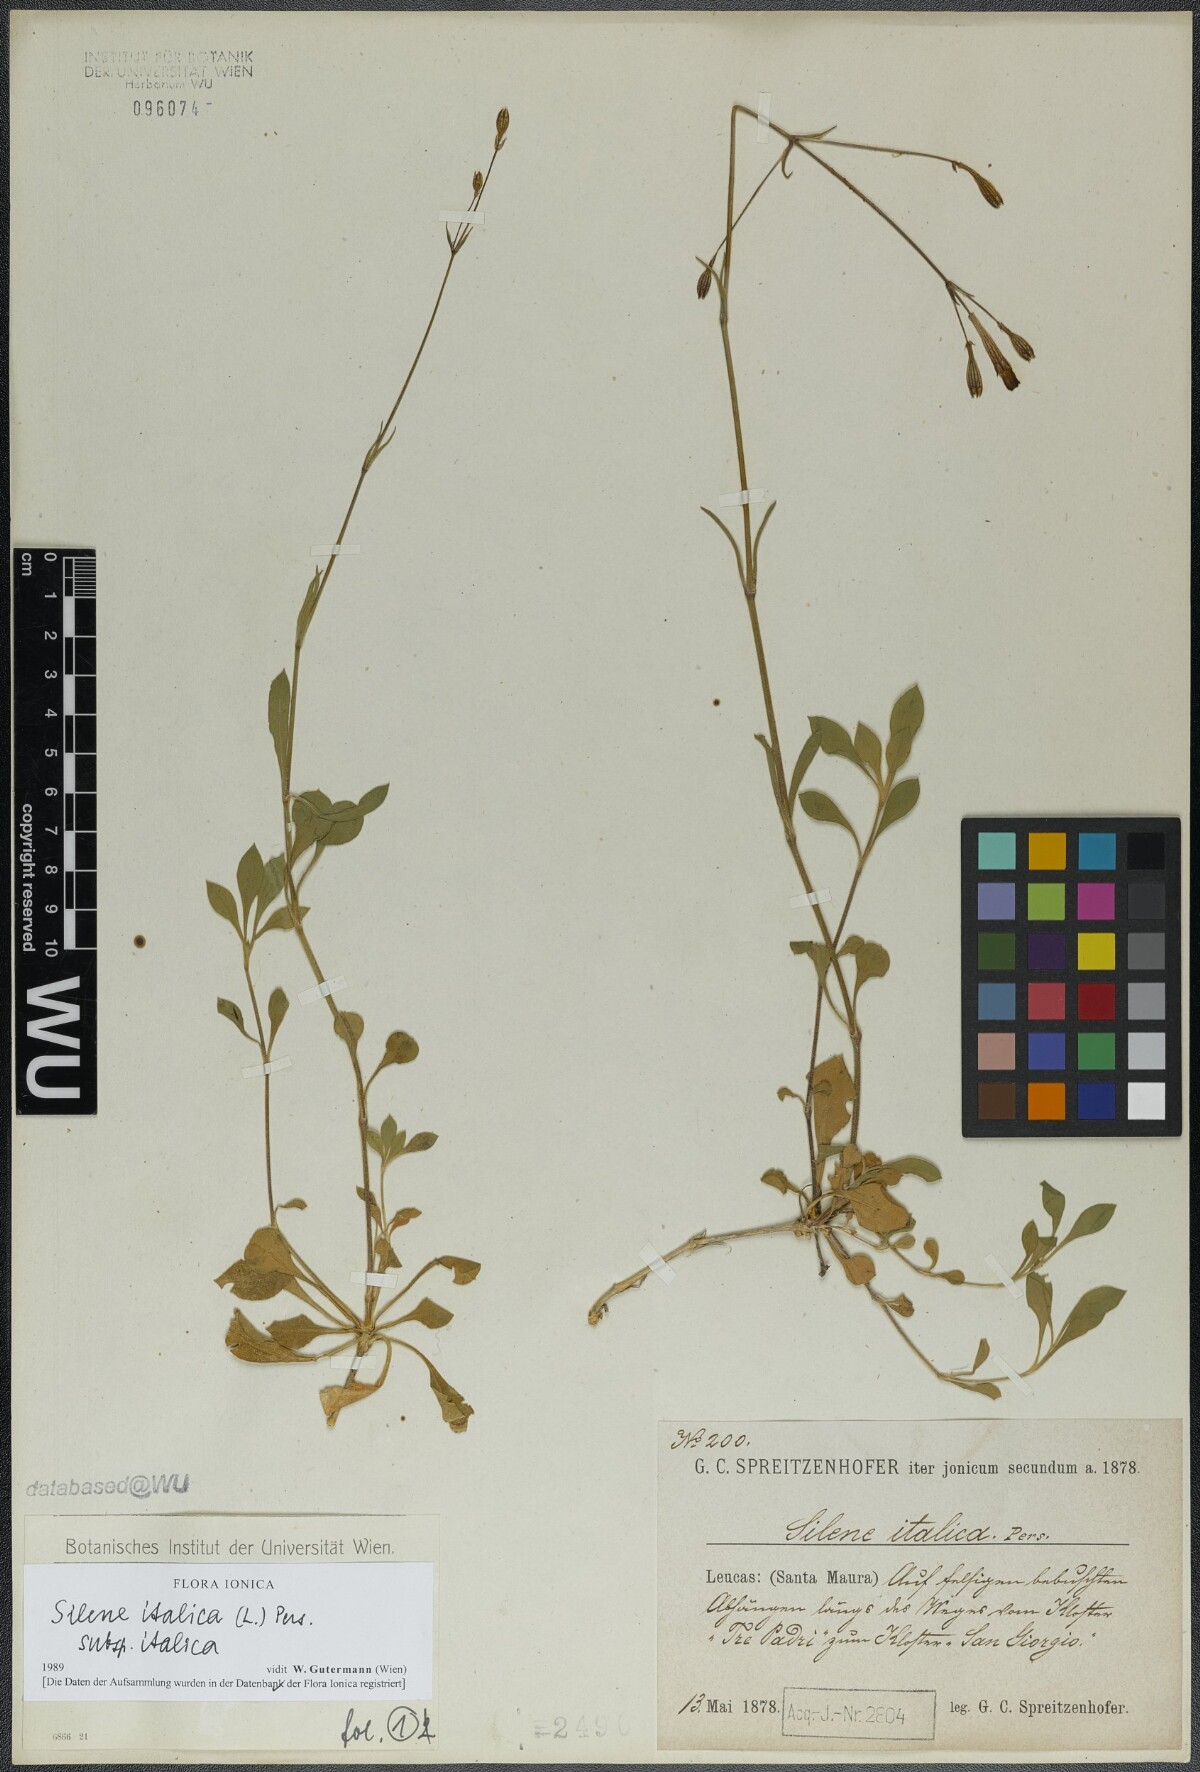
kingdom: Plantae
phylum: Tracheophyta
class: Magnoliopsida
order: Caryophyllales
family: Caryophyllaceae
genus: Silene
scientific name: Silene italica
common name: Italian catchfly
